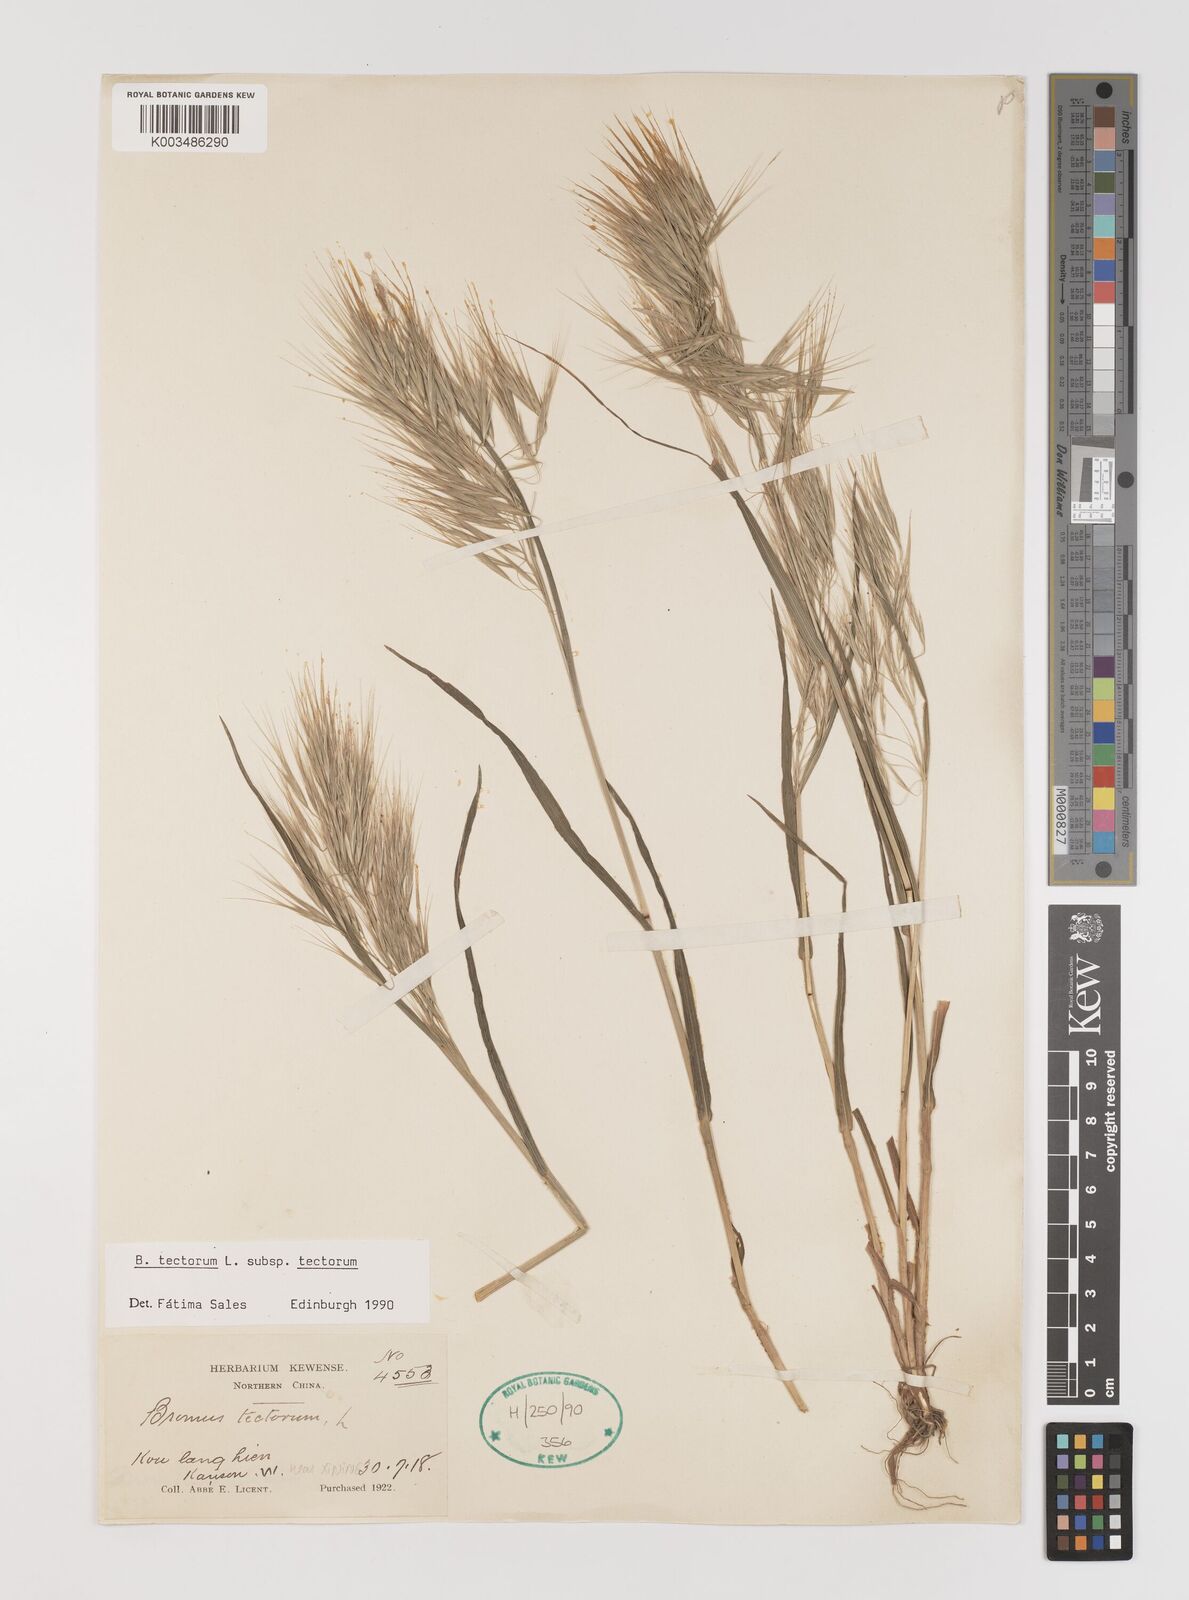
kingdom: Plantae
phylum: Tracheophyta
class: Liliopsida
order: Poales
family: Poaceae
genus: Bromus
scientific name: Bromus tectorum
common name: Cheatgrass
